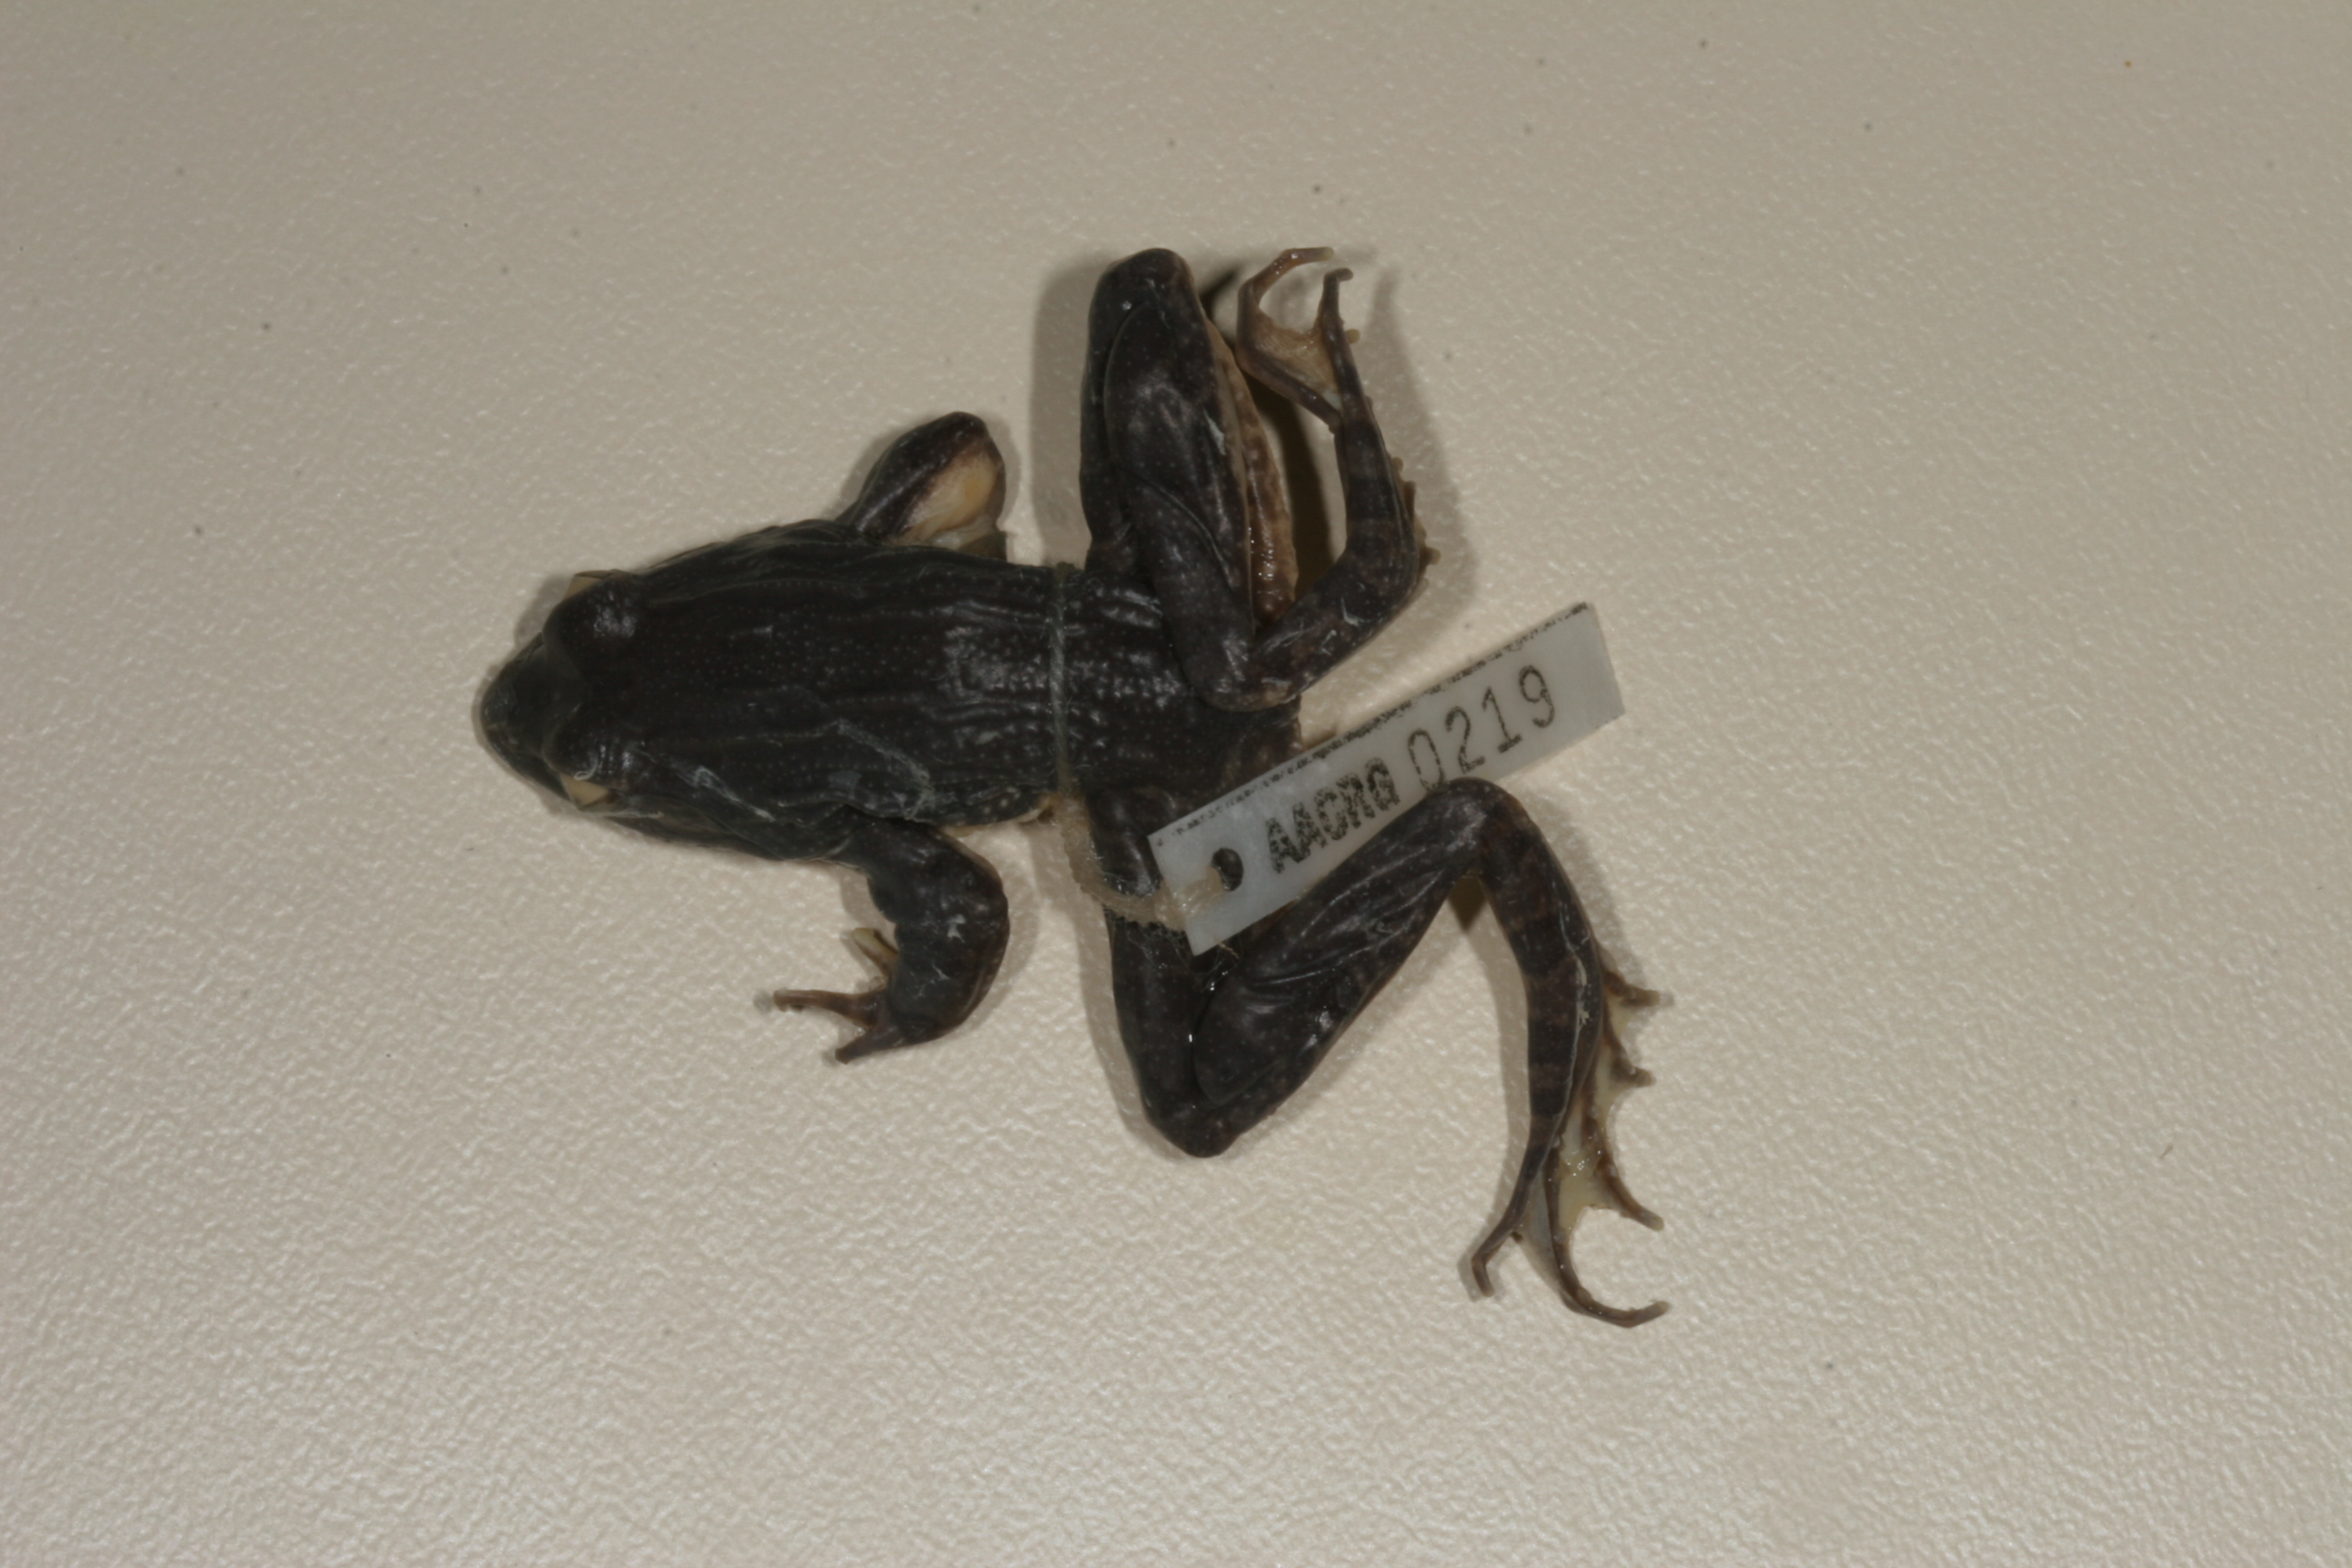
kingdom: Animalia
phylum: Chordata
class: Amphibia
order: Anura
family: Pyxicephalidae
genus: Amietia
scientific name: Amietia angolensis
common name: Dusky-throated frog
